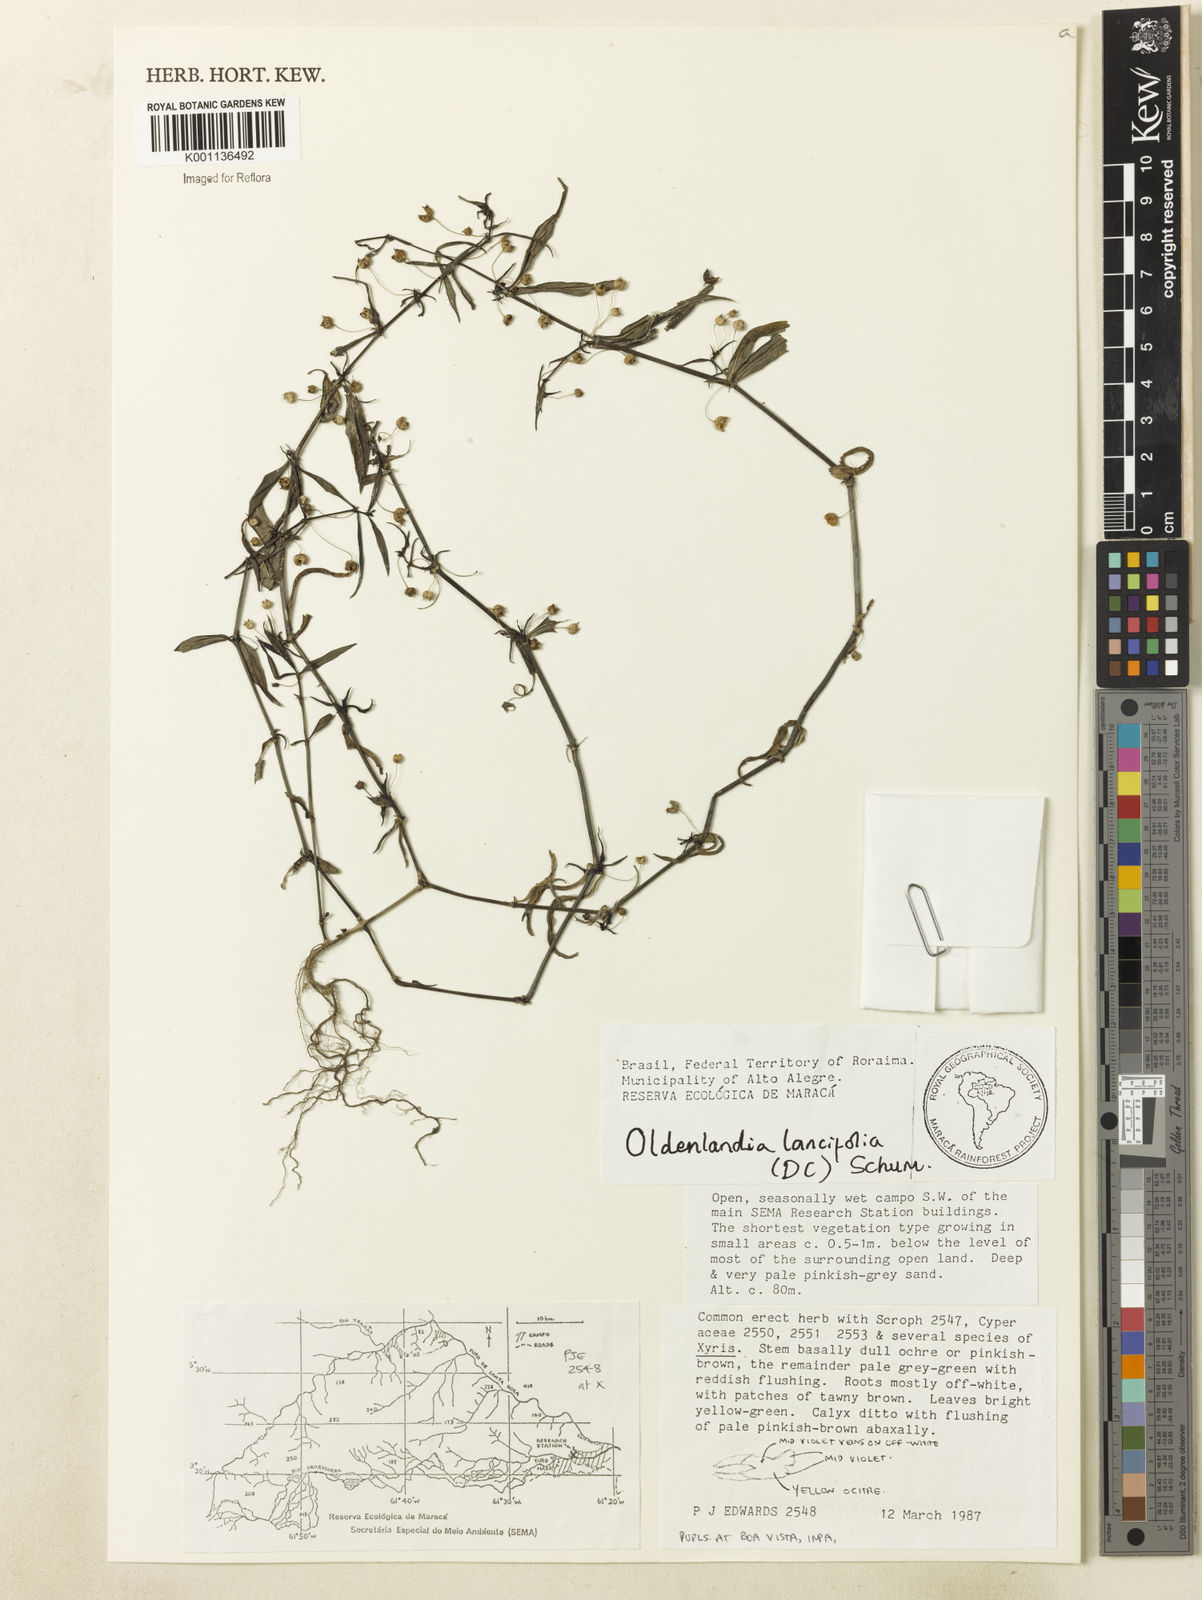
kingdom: Plantae
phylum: Tracheophyta
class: Magnoliopsida
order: Gentianales
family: Rubiaceae
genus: Oldenlandia
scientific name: Oldenlandia lancifolia
